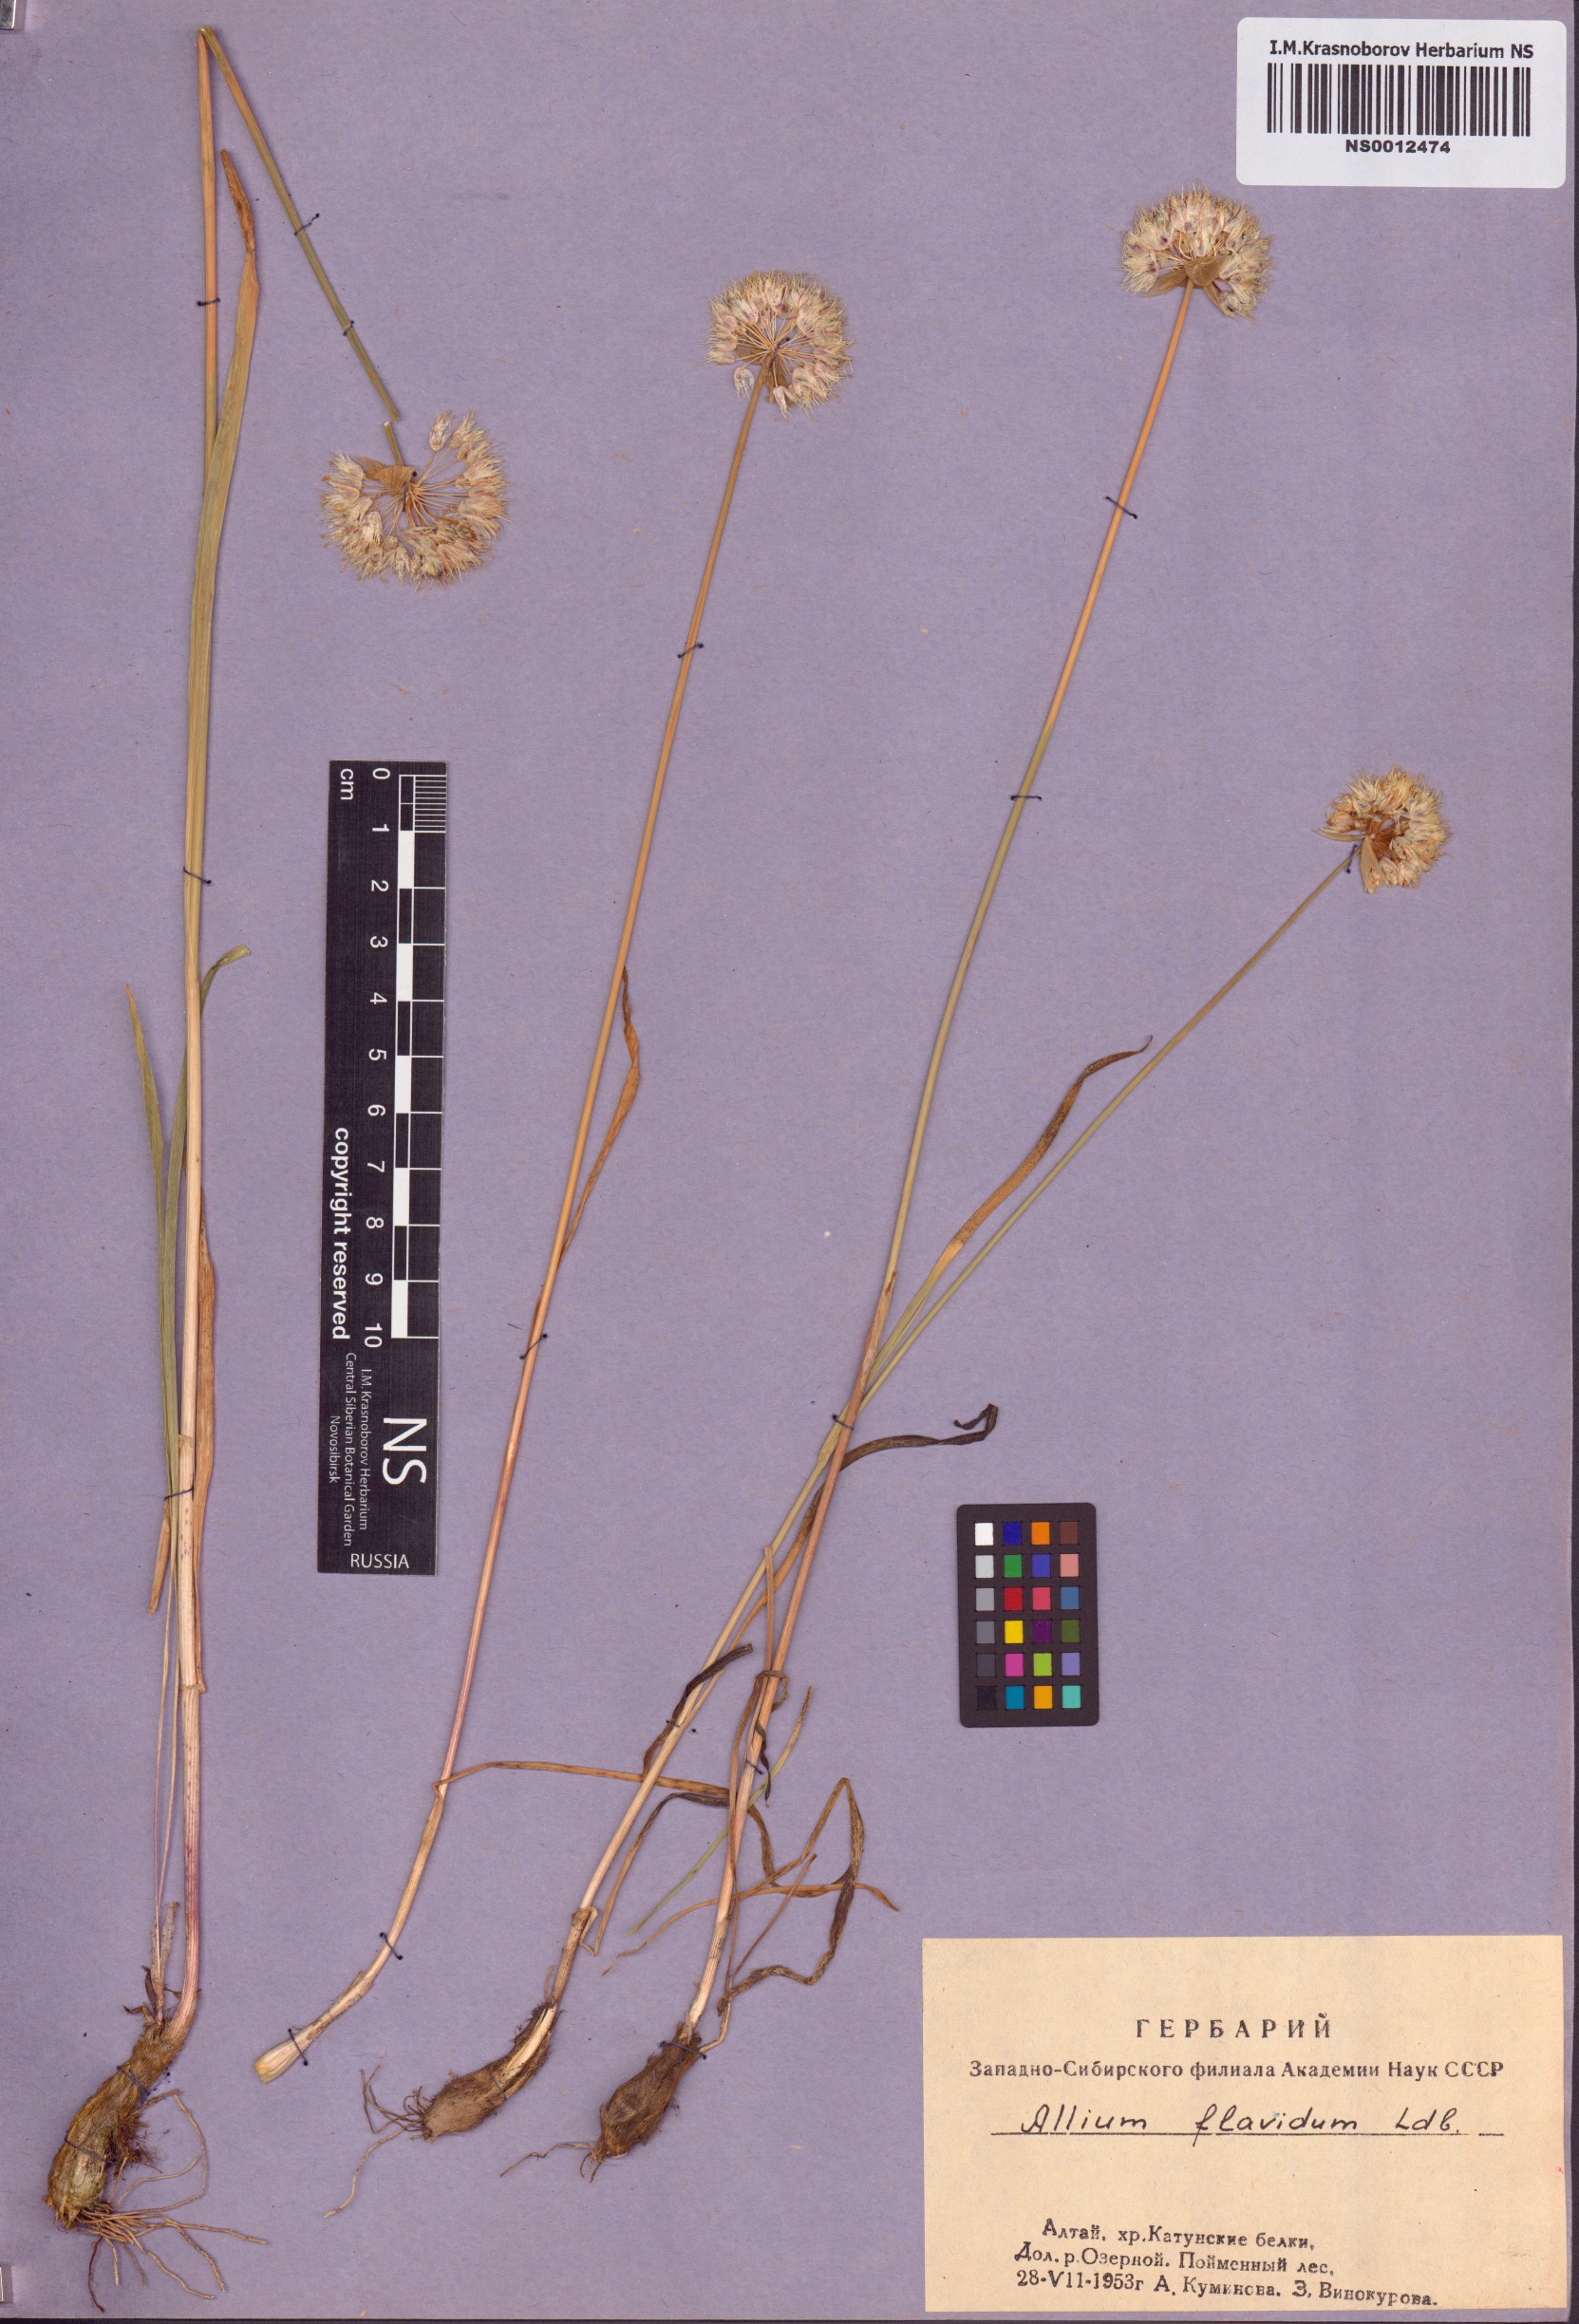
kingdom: Plantae
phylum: Tracheophyta
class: Liliopsida
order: Asparagales
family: Amaryllidaceae
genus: Allium
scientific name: Allium flavidum
